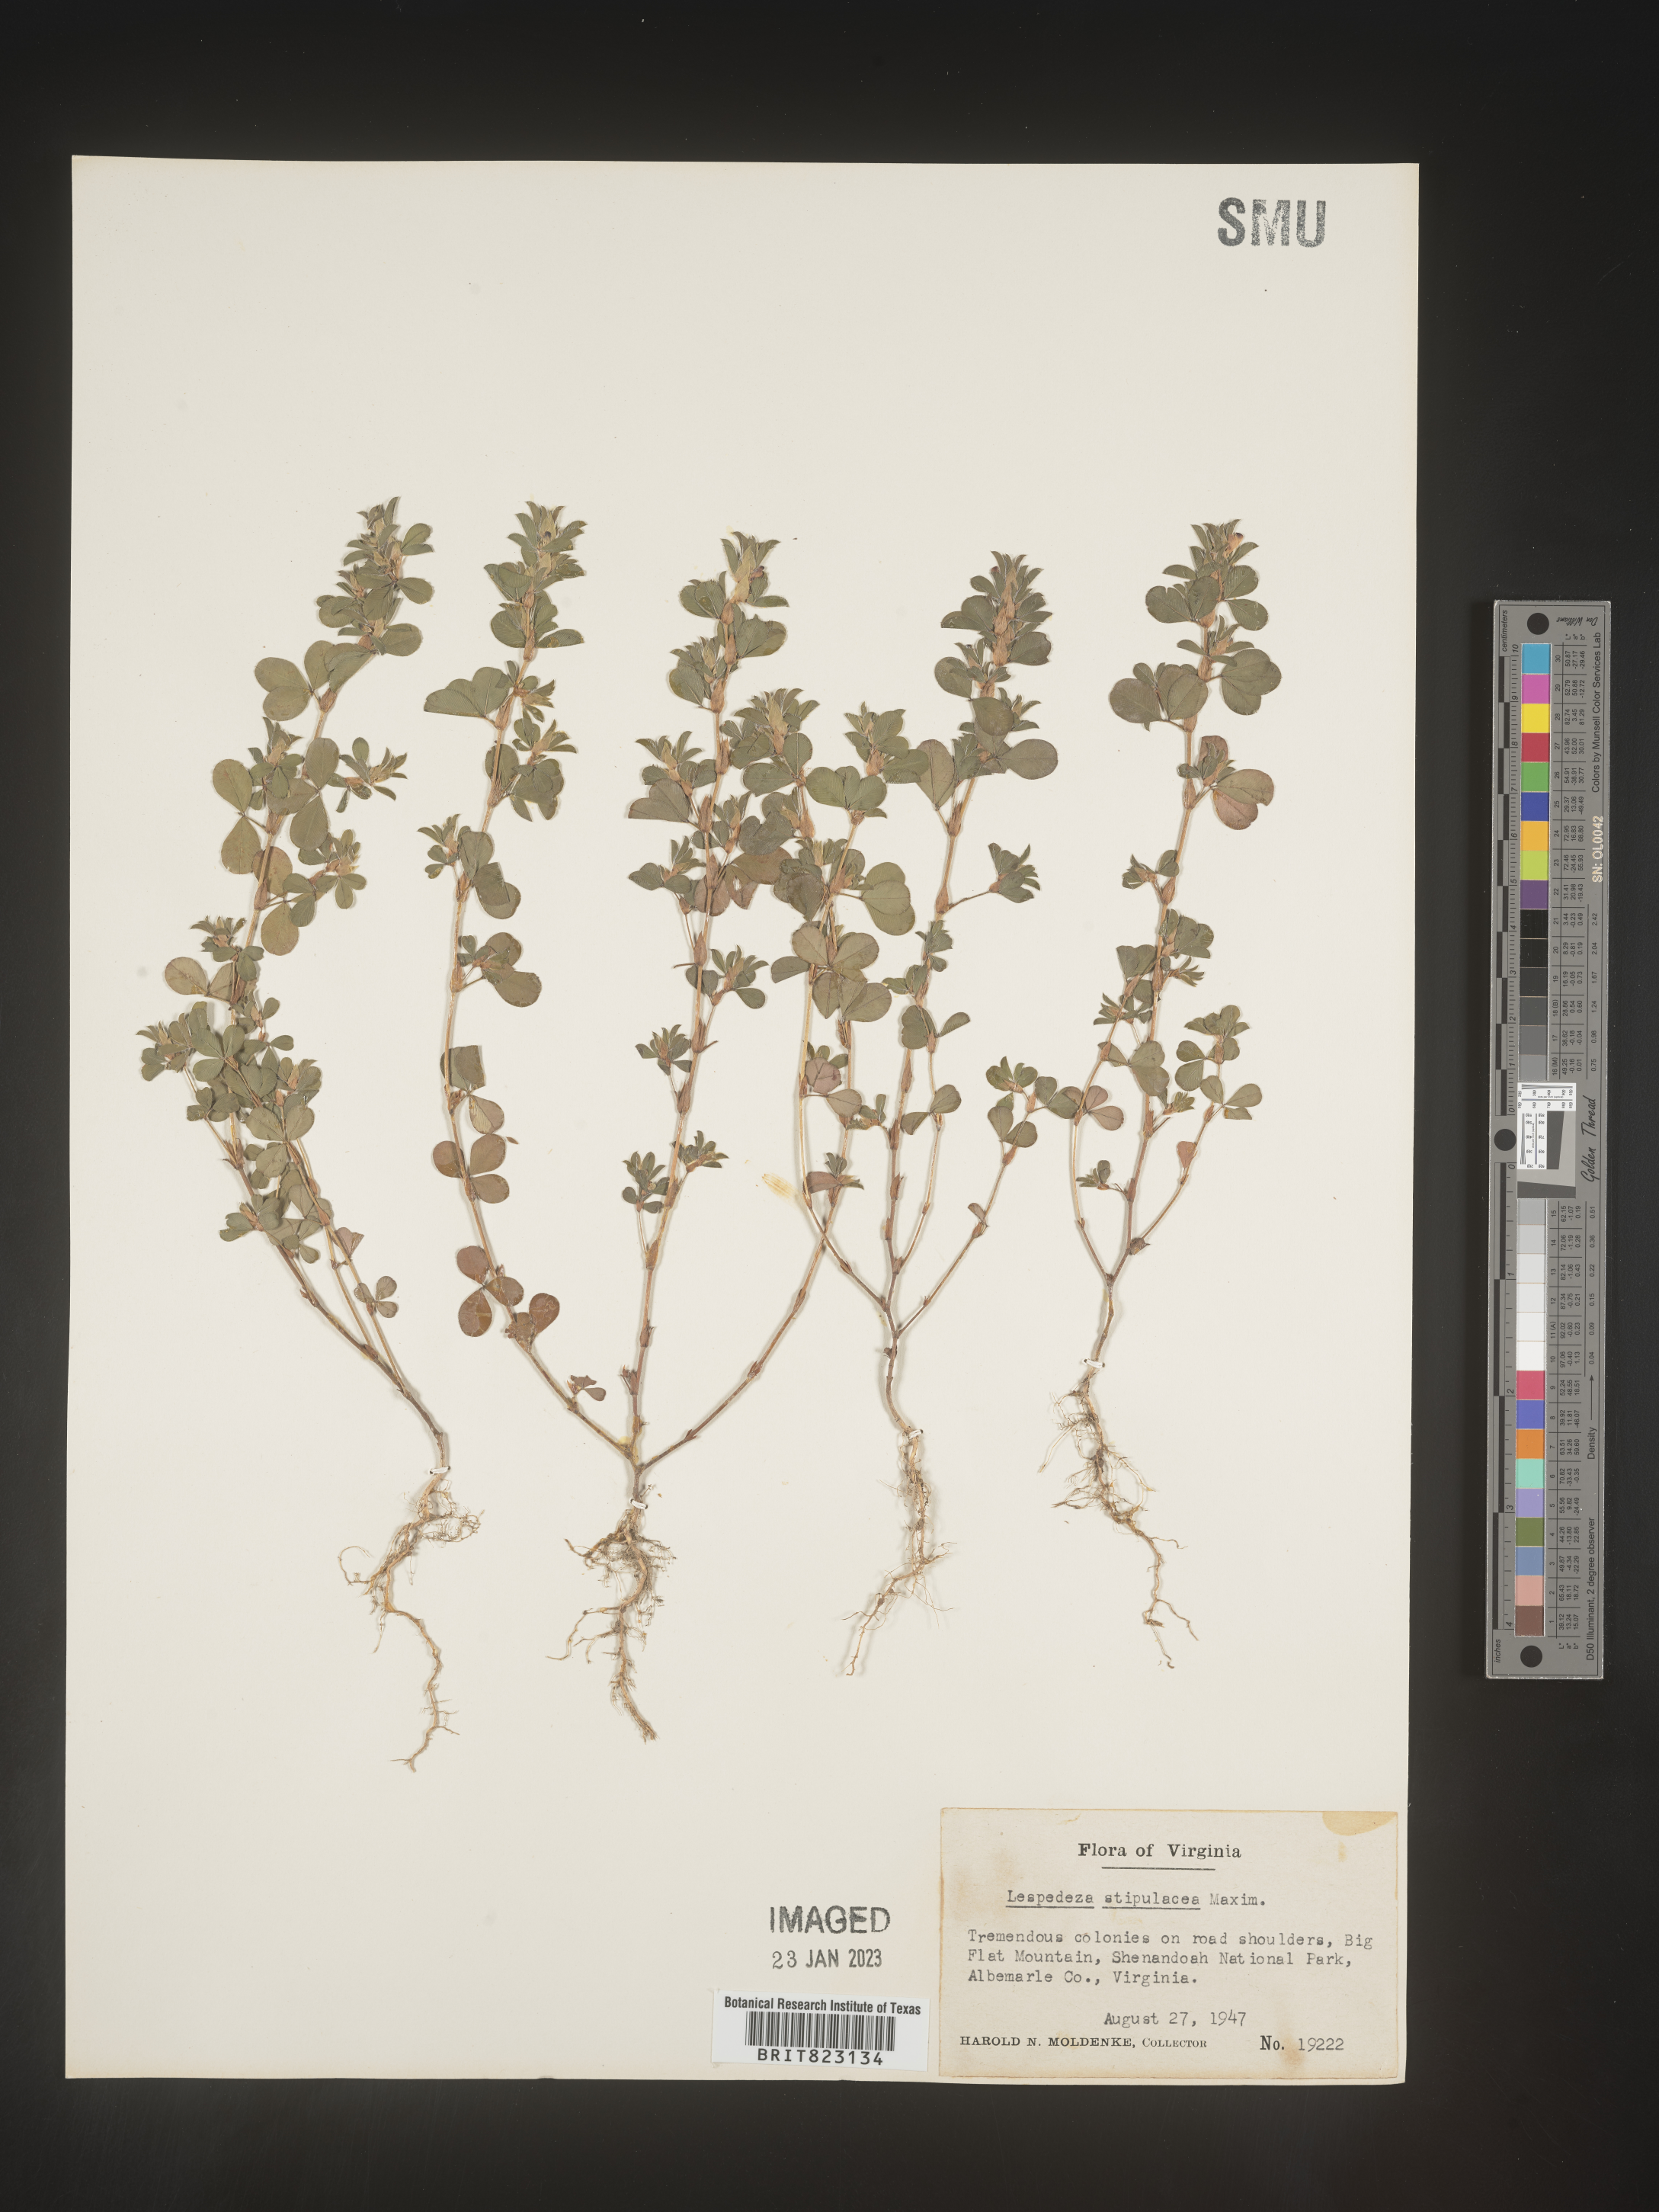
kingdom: Plantae
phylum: Tracheophyta
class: Magnoliopsida
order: Fabales
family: Fabaceae
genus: Lespedeza
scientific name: Lespedeza
